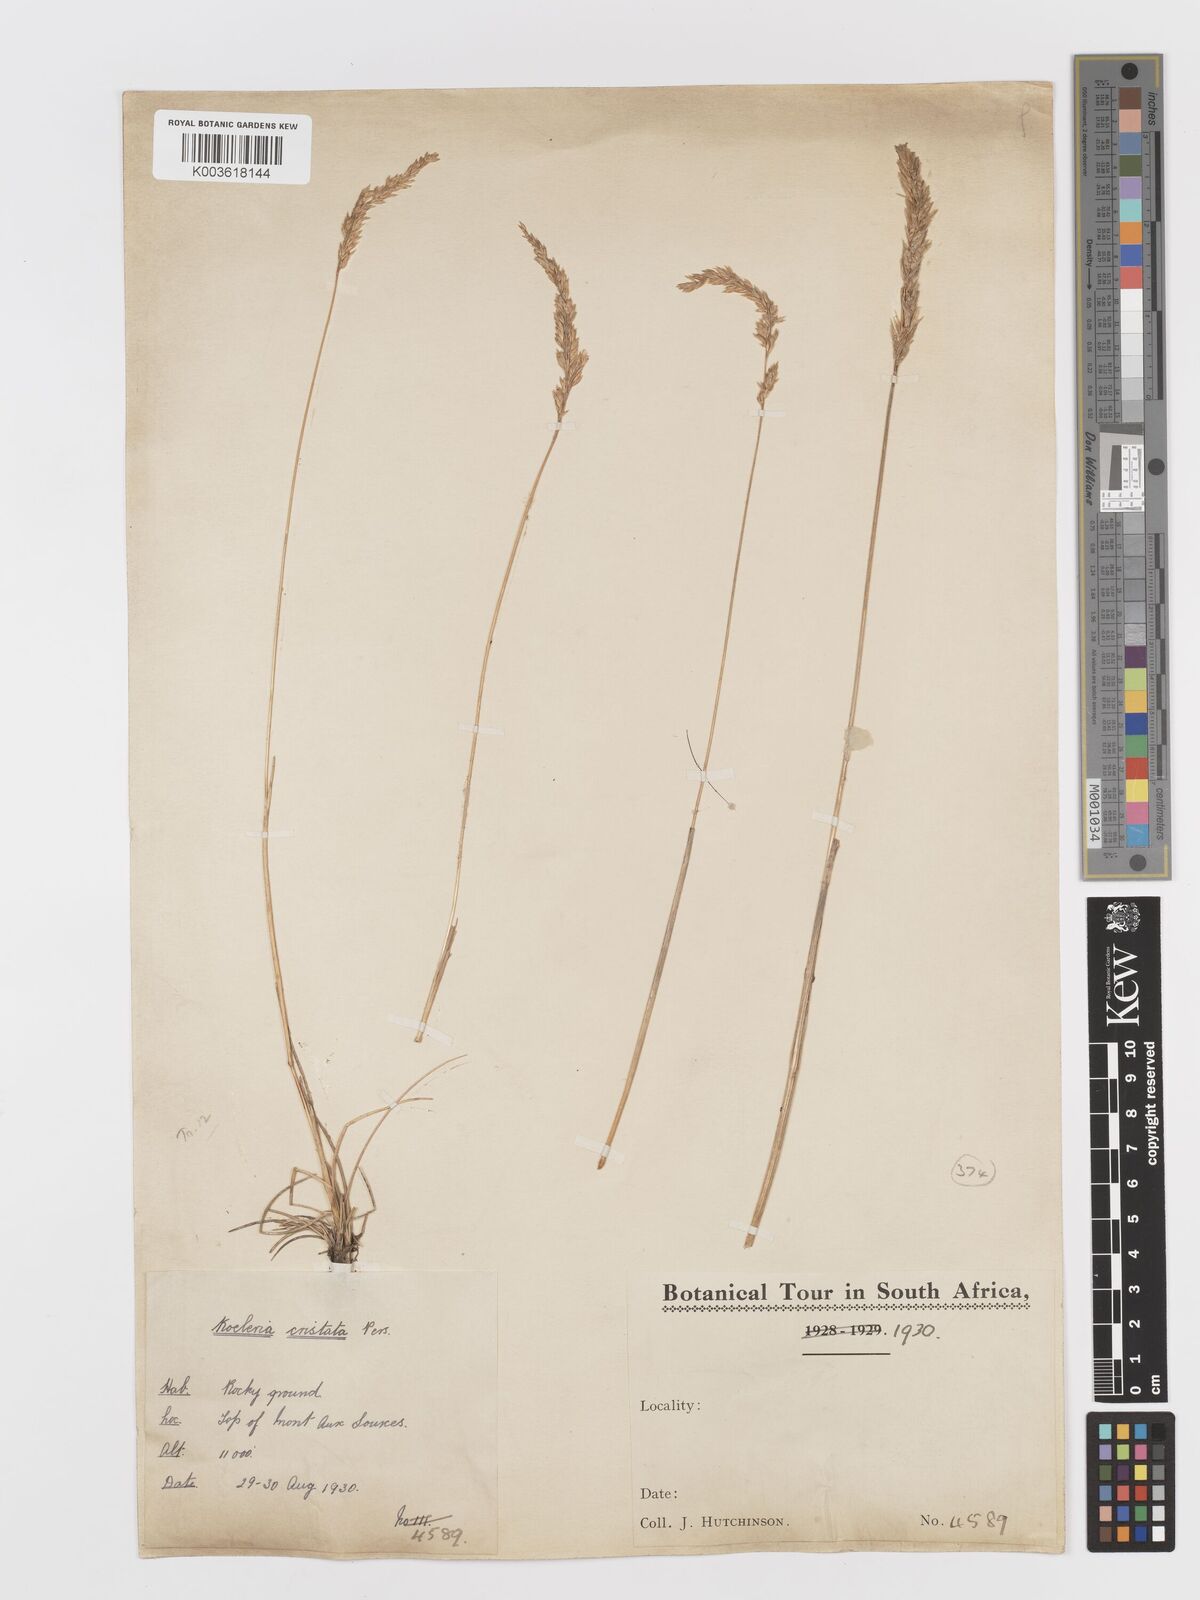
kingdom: Plantae
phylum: Tracheophyta
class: Liliopsida
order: Poales
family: Poaceae
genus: Koeleria
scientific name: Koeleria capensis
